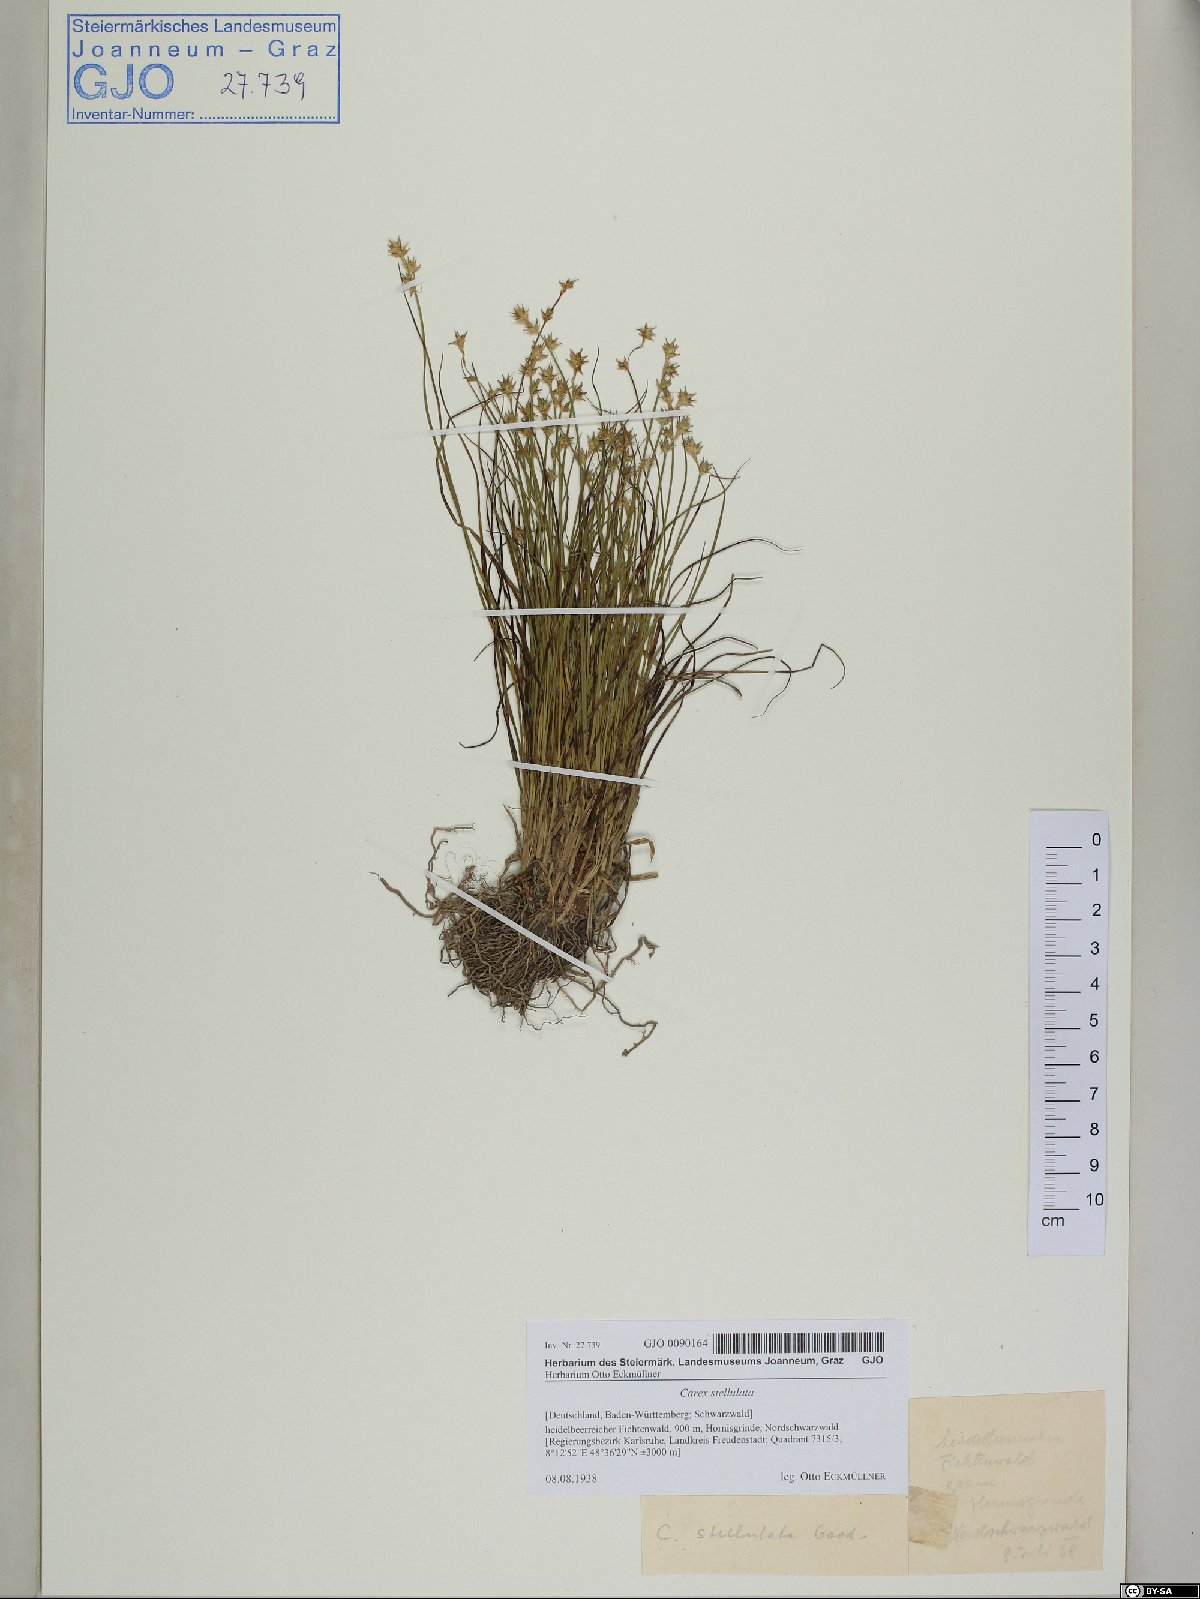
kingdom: Plantae
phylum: Tracheophyta
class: Liliopsida
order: Poales
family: Cyperaceae
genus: Carex
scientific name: Carex echinata
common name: Star sedge
